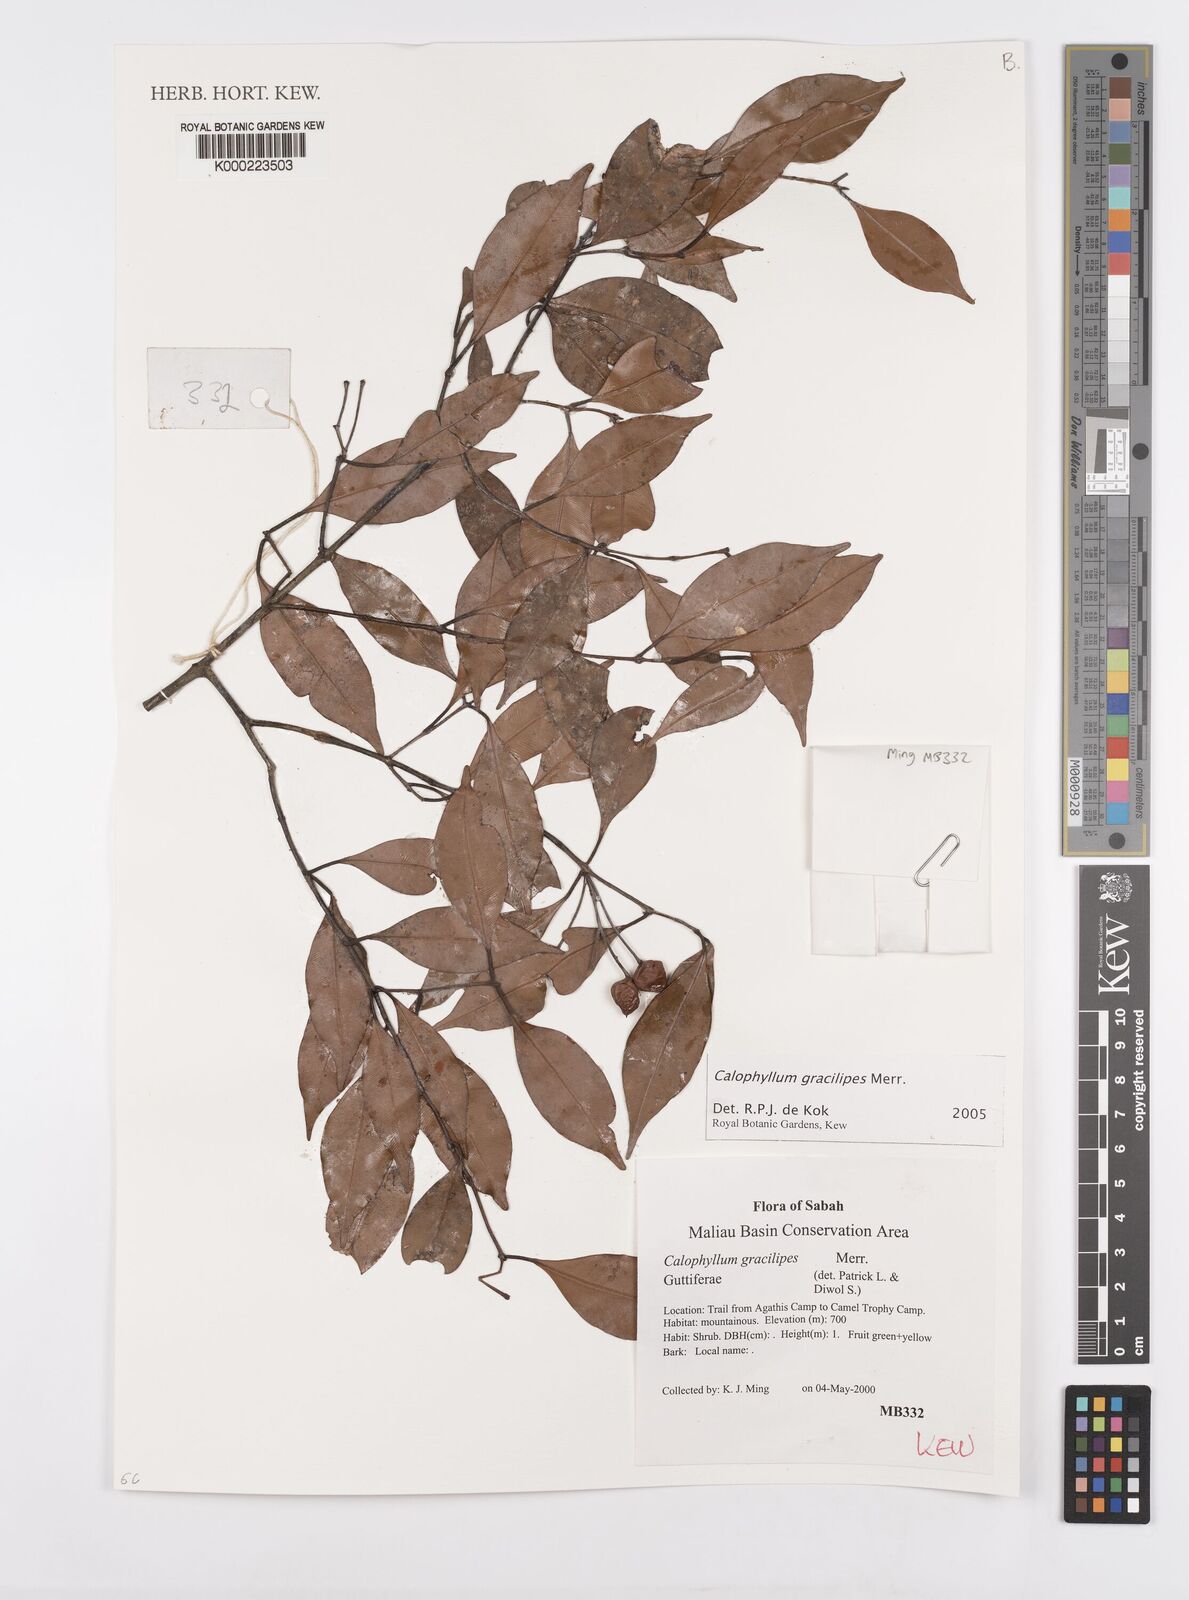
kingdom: Plantae
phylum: Tracheophyta
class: Magnoliopsida
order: Malpighiales
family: Calophyllaceae
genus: Calophyllum
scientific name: Calophyllum gracilipes
